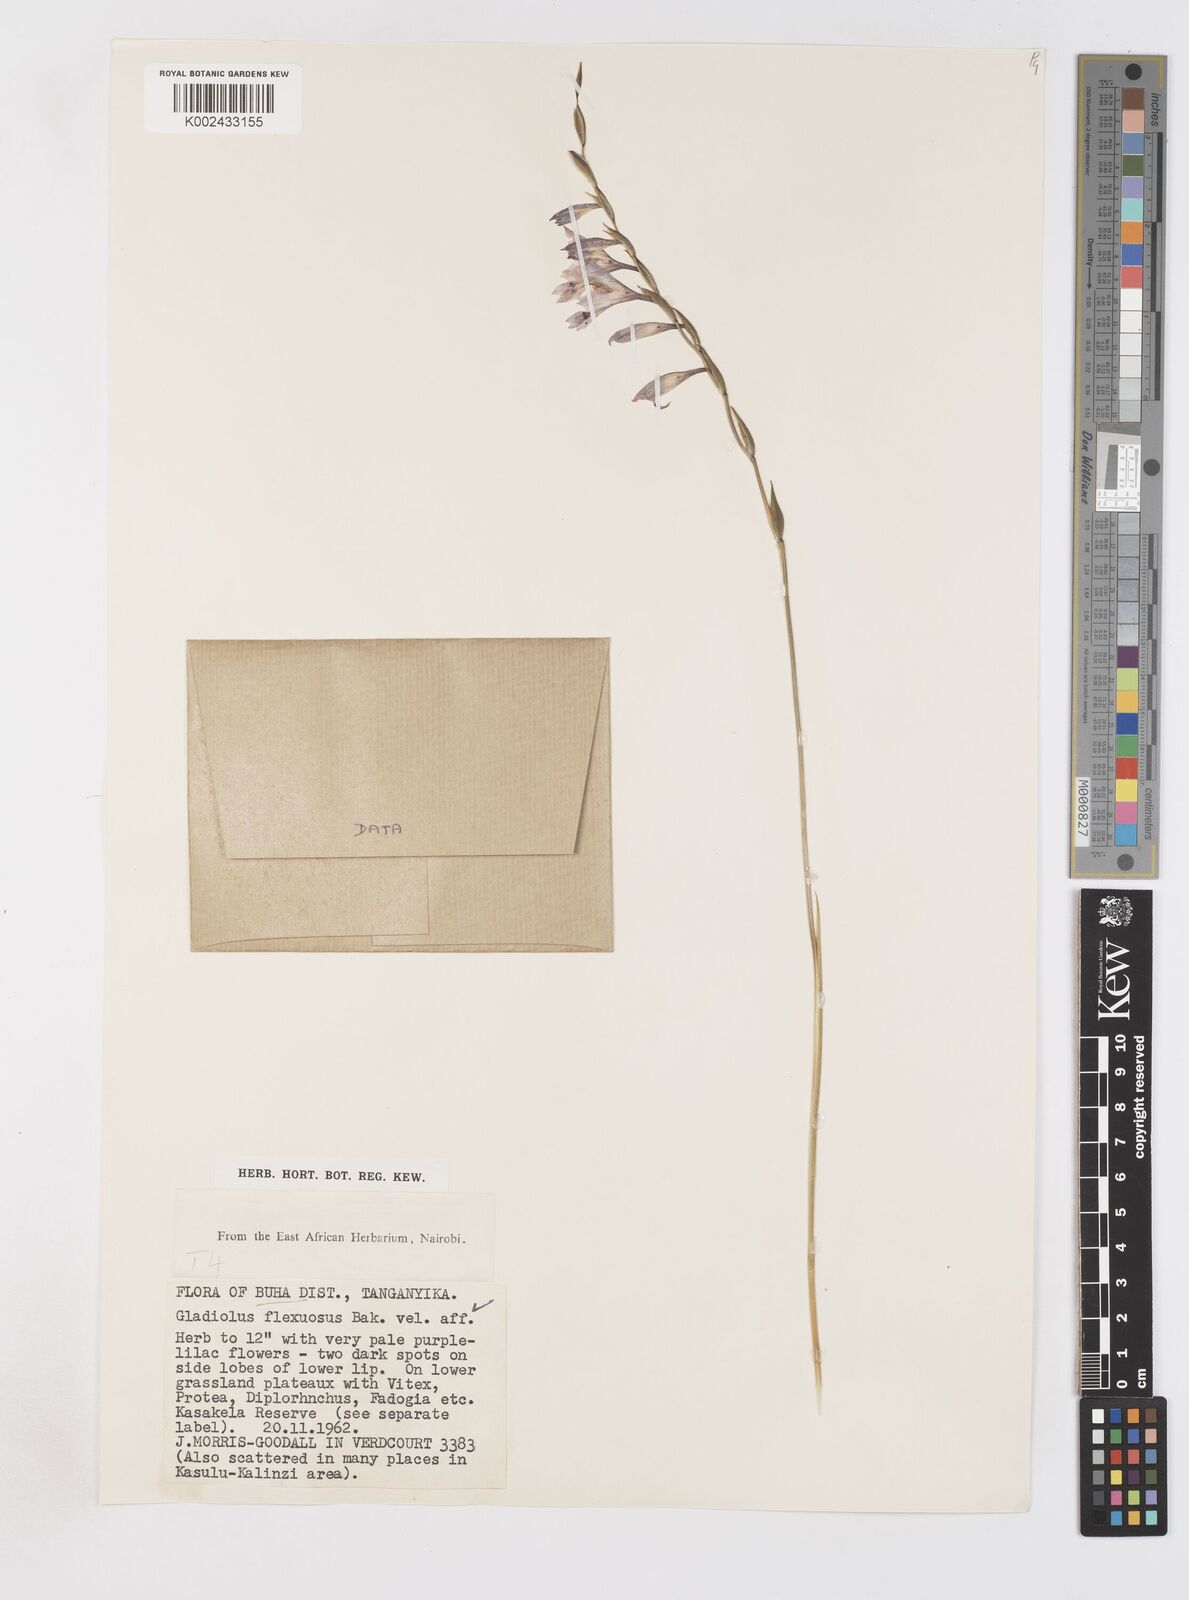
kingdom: Plantae
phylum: Tracheophyta
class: Liliopsida
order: Asparagales
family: Iridaceae
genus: Gladiolus
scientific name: Gladiolus atropurpureus
